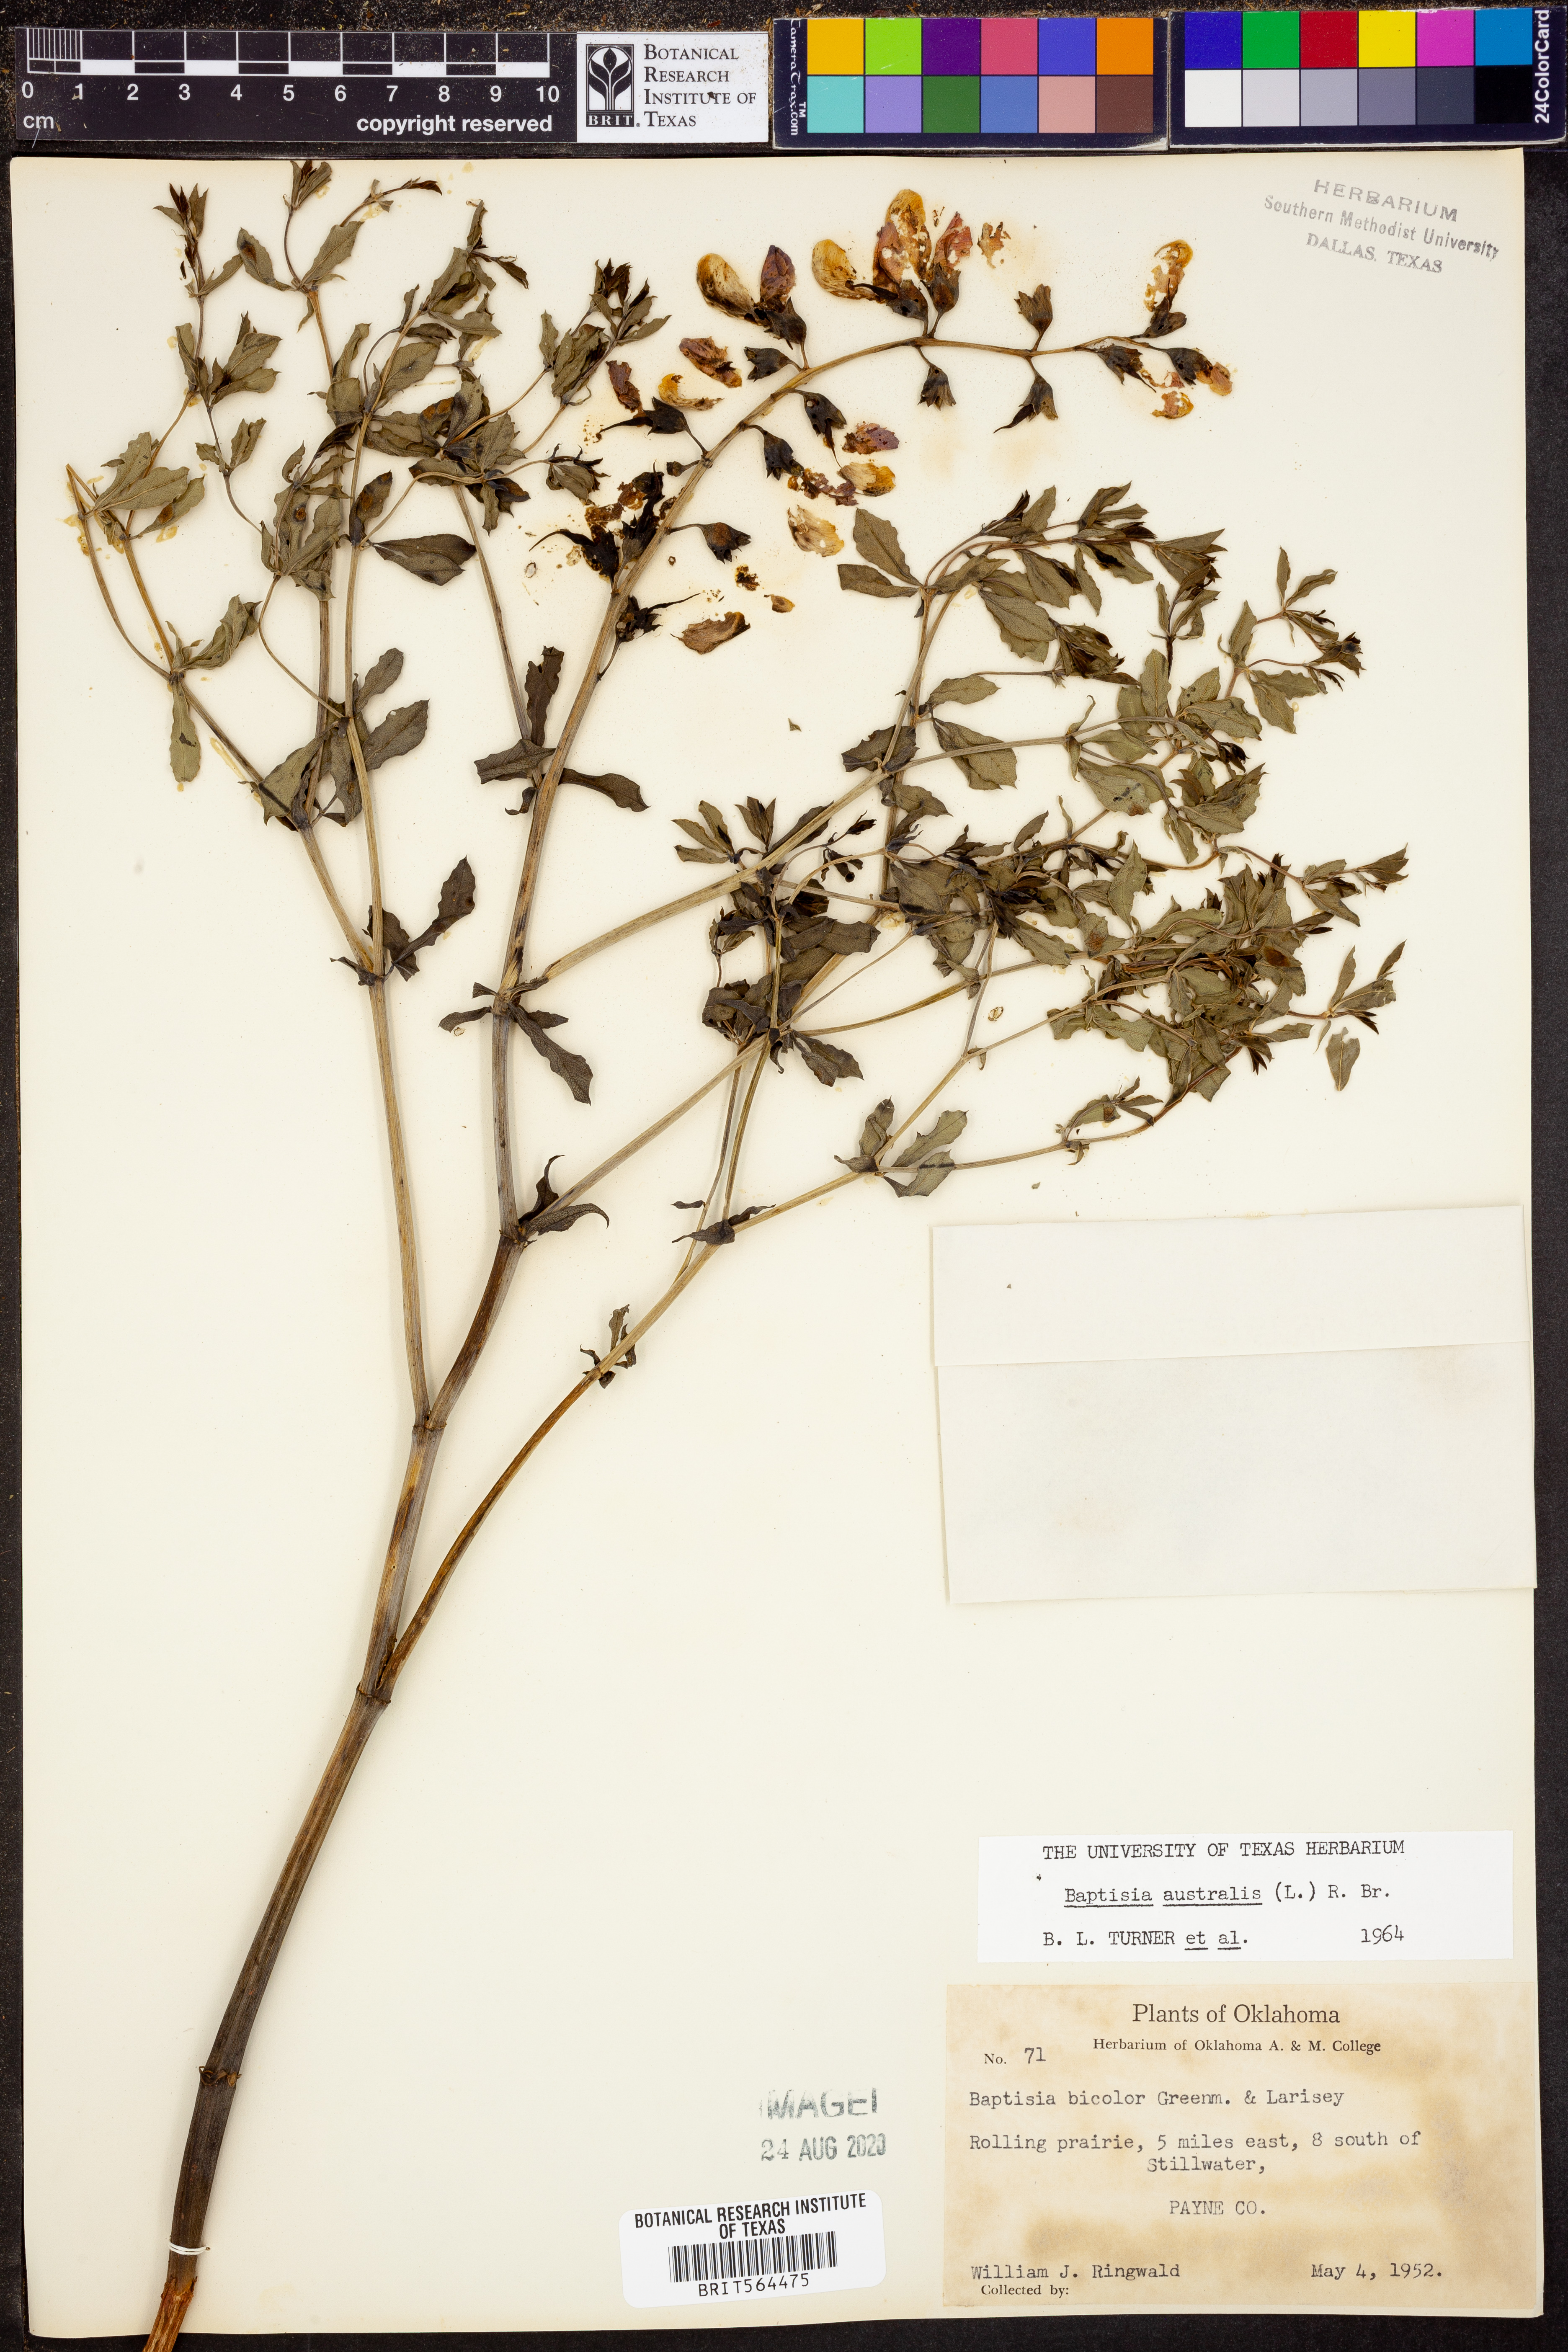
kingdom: Plantae
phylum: Tracheophyta
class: Magnoliopsida
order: Fabales
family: Fabaceae
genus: Baptisia
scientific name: Baptisia australis
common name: Blue false indigo
